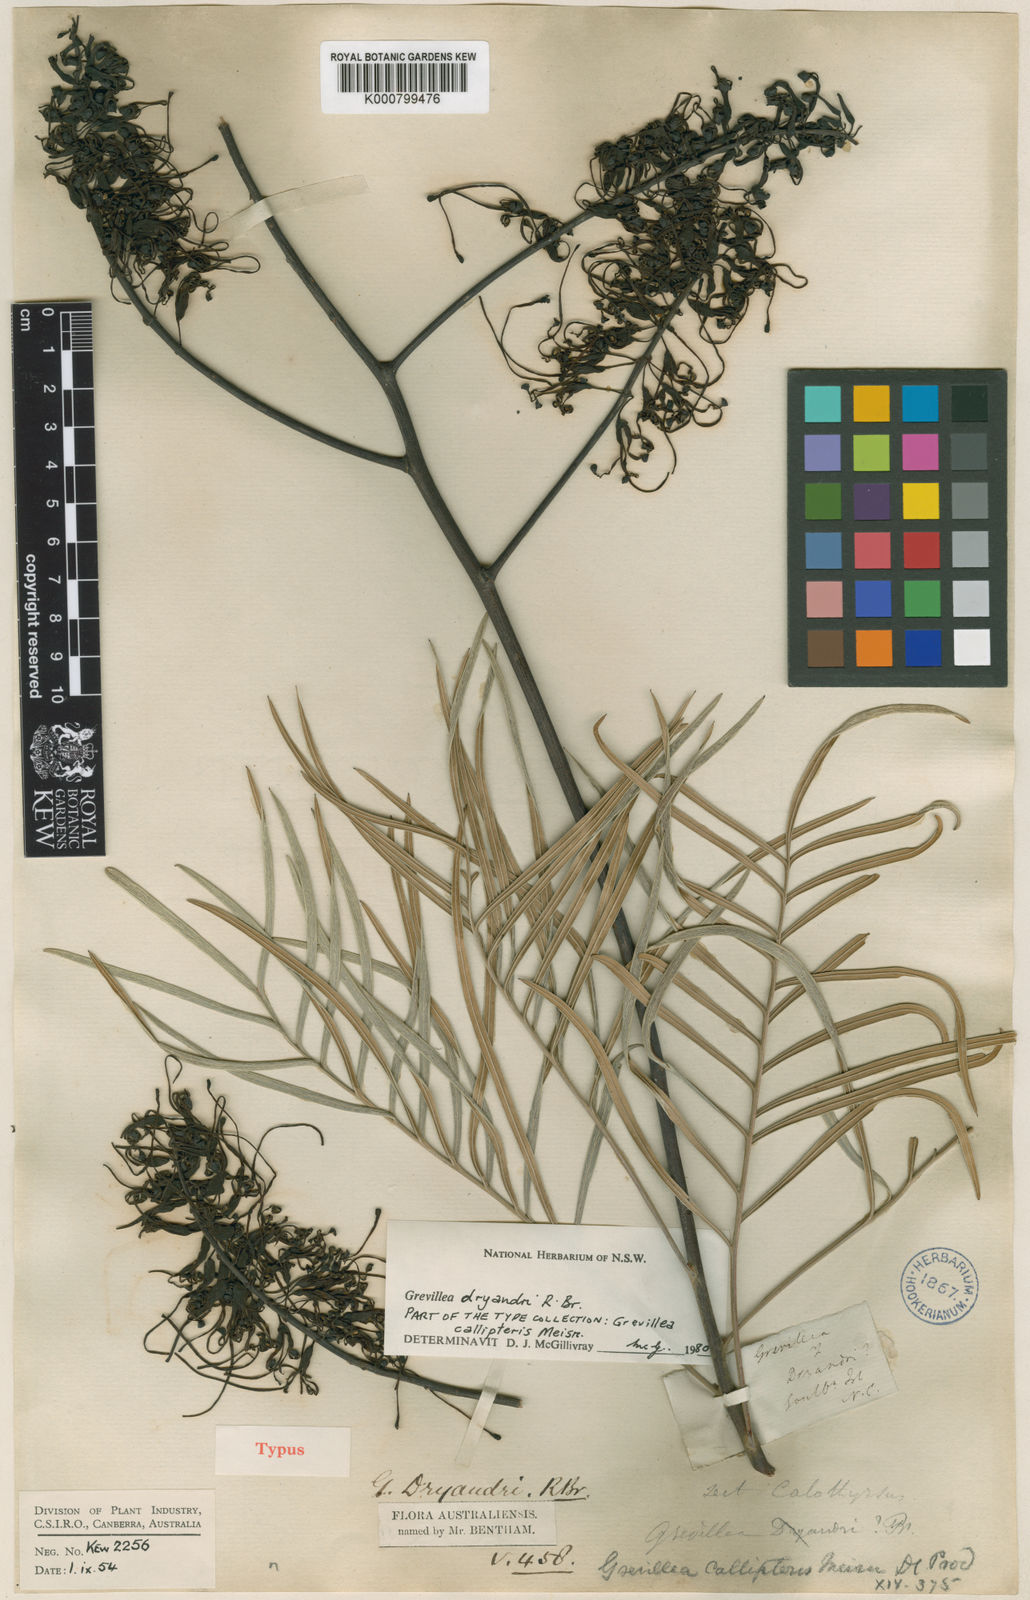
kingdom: Plantae
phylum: Tracheophyta
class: Magnoliopsida
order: Proteales
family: Proteaceae
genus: Grevillea
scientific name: Grevillea dryandri
